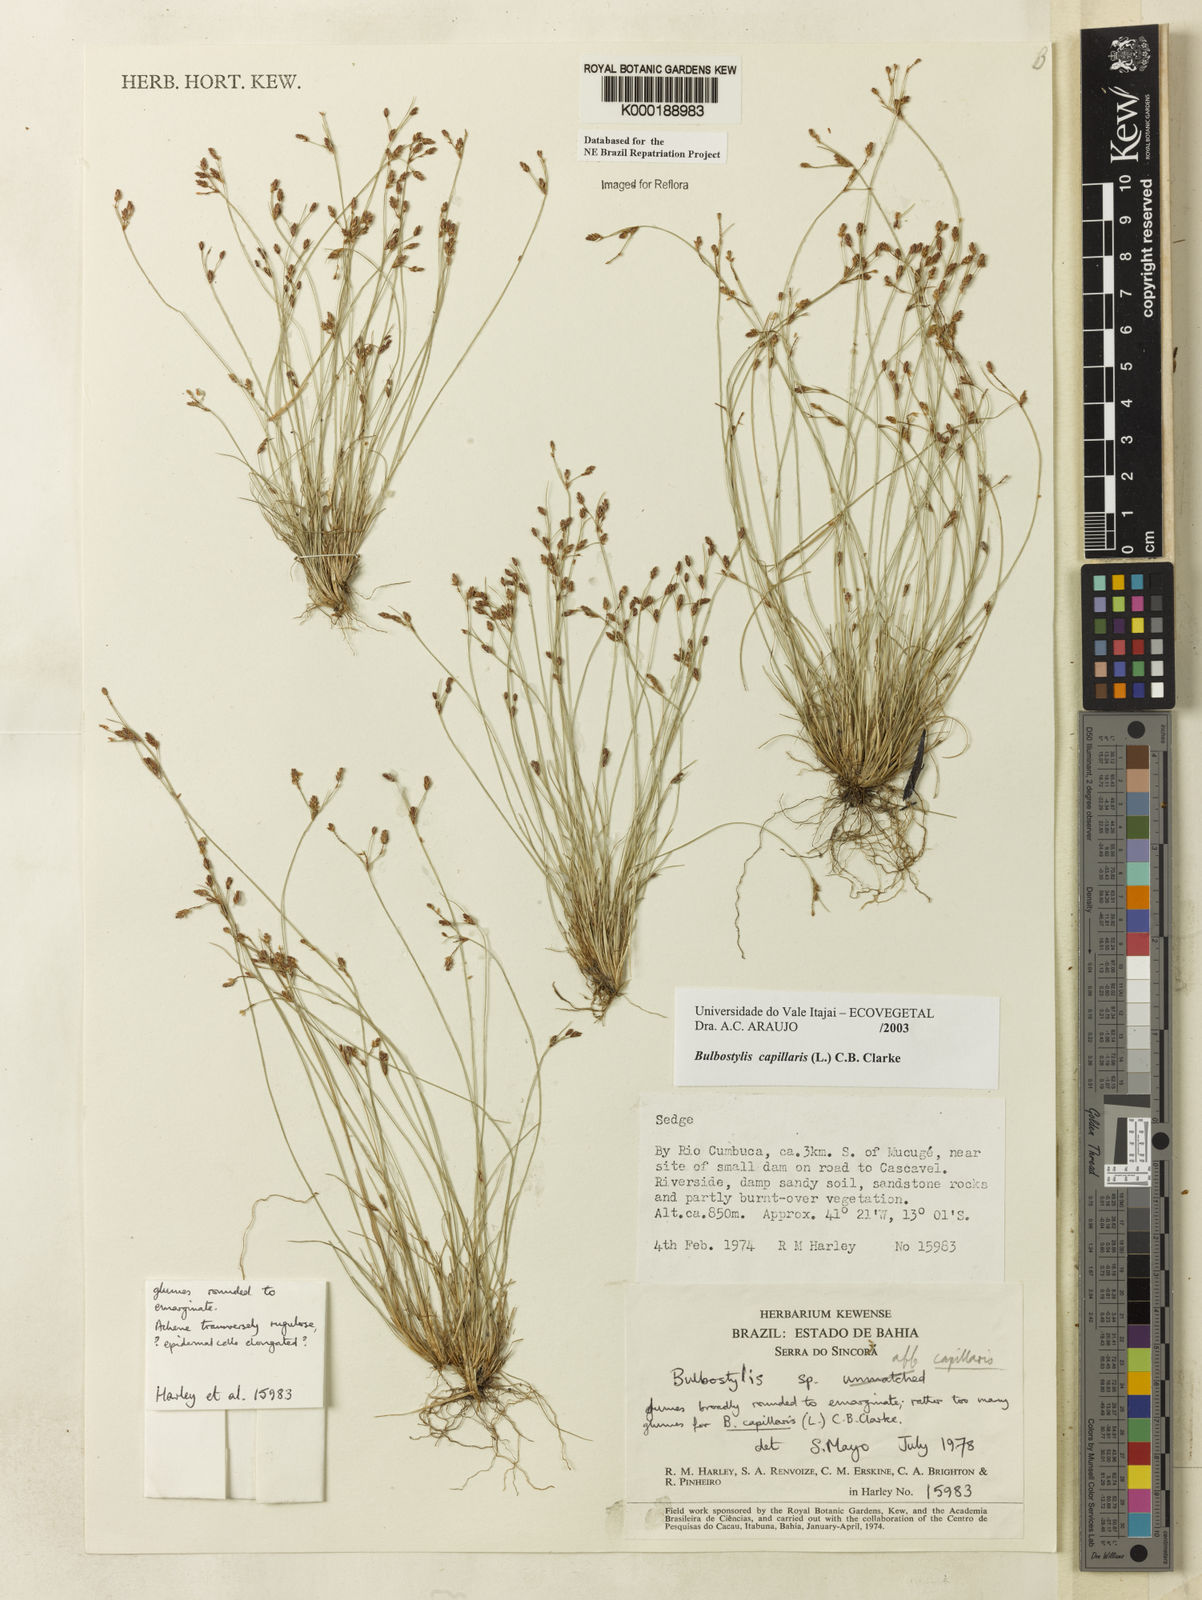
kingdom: Plantae
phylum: Tracheophyta
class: Liliopsida
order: Poales
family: Cyperaceae
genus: Bulbostylis
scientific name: Bulbostylis capillaris
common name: Densetuft hairsedge
